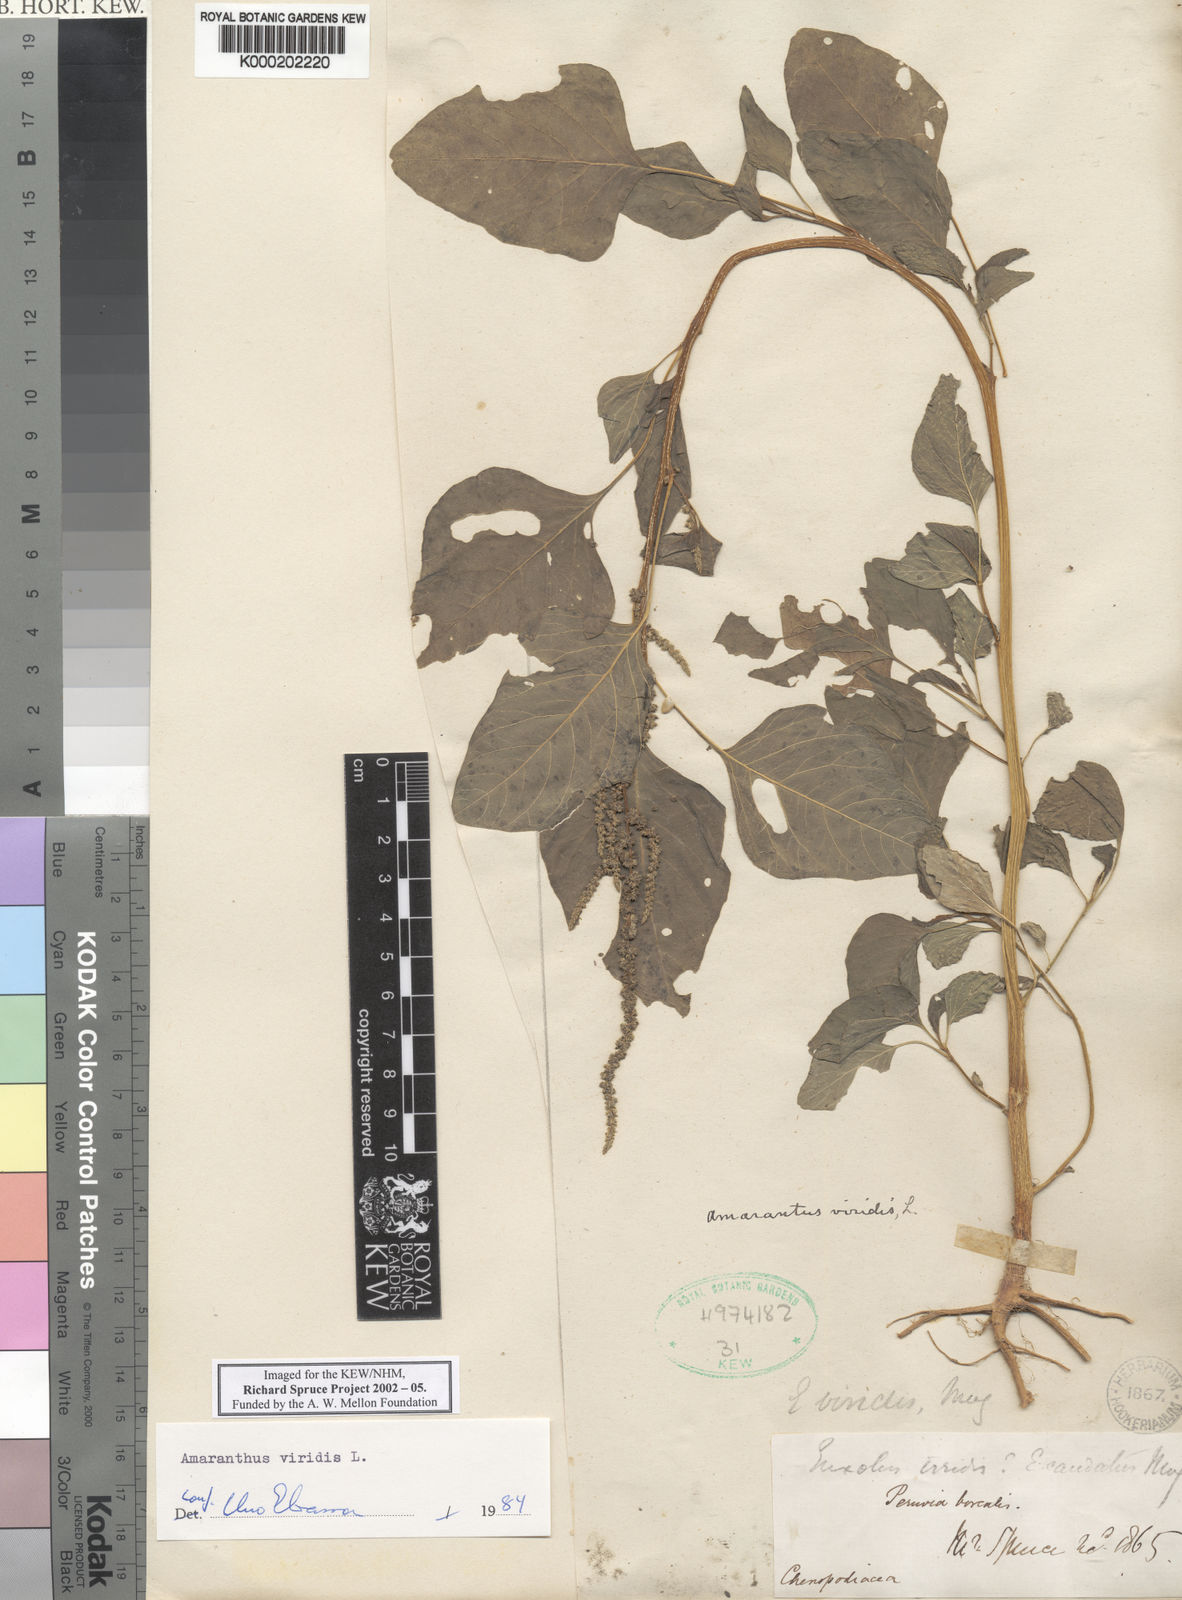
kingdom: Plantae
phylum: Tracheophyta
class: Magnoliopsida
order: Caryophyllales
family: Amaranthaceae
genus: Amaranthus
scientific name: Amaranthus viridis
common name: Slender amaranth
